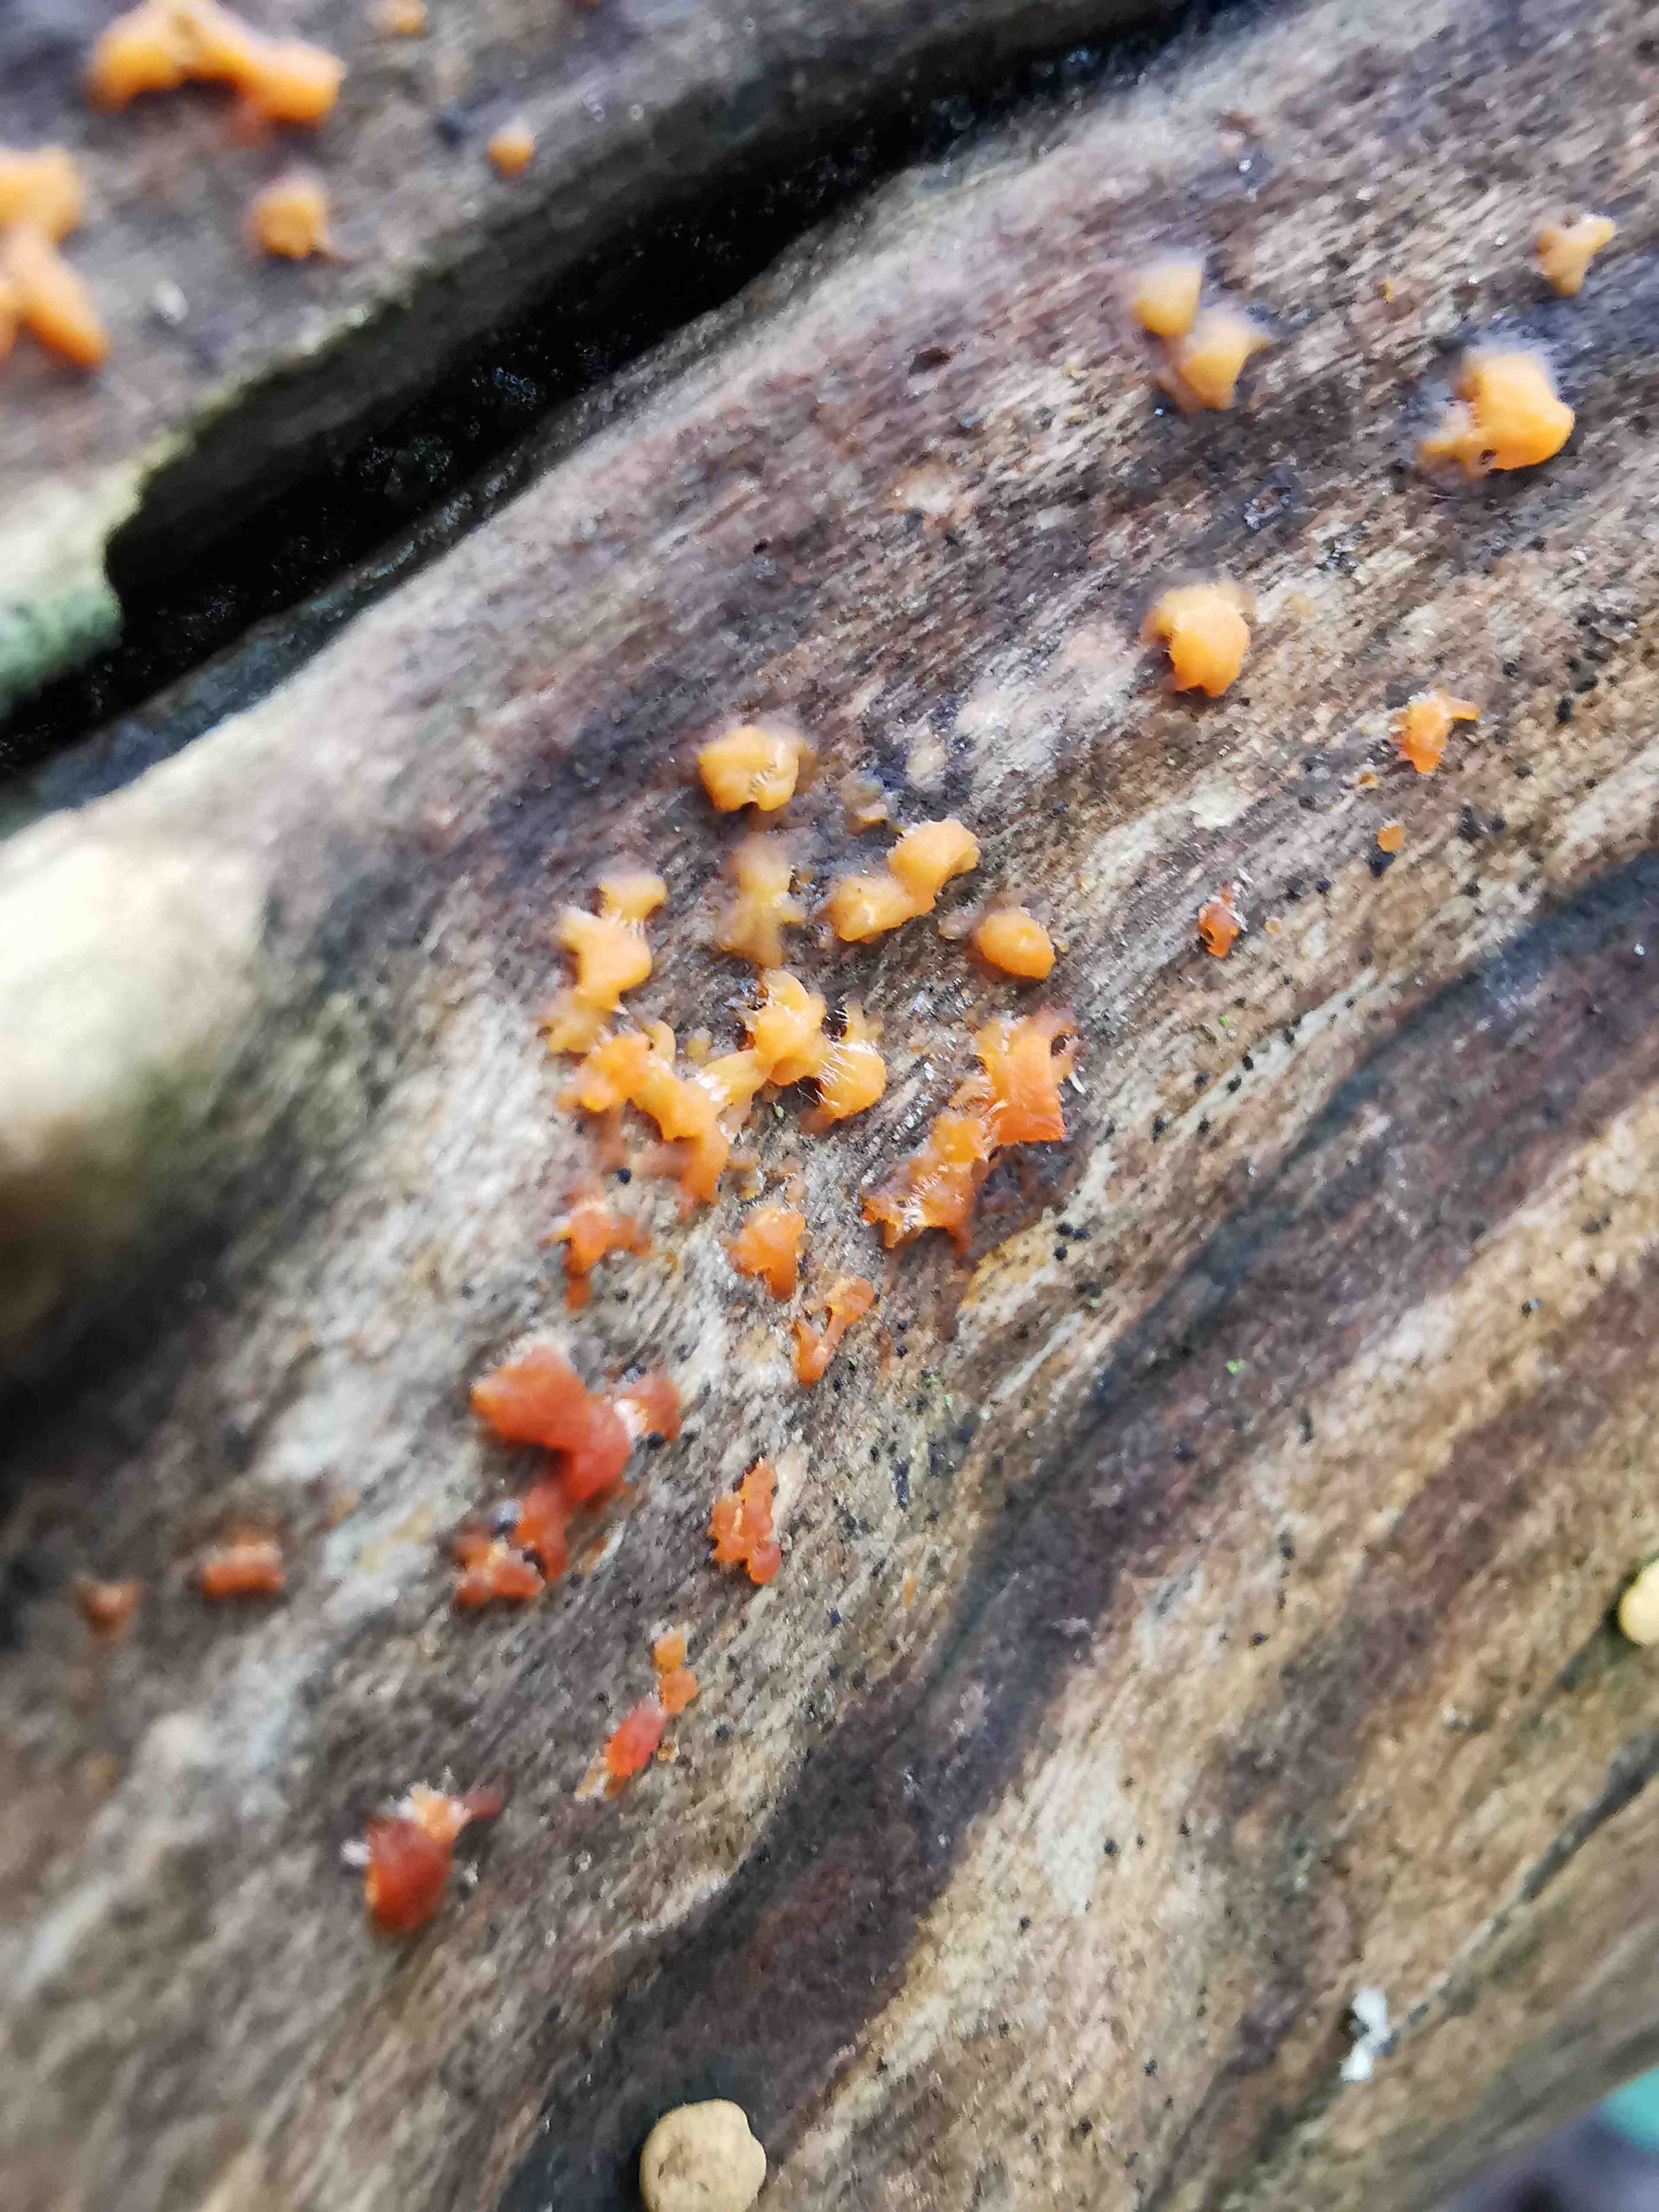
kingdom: Fungi
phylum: Basidiomycota
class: Dacrymycetes
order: Dacrymycetales
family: Dacrymycetaceae
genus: Dacrymyces
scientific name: Dacrymyces stillatus
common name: almindelig tåresvamp
